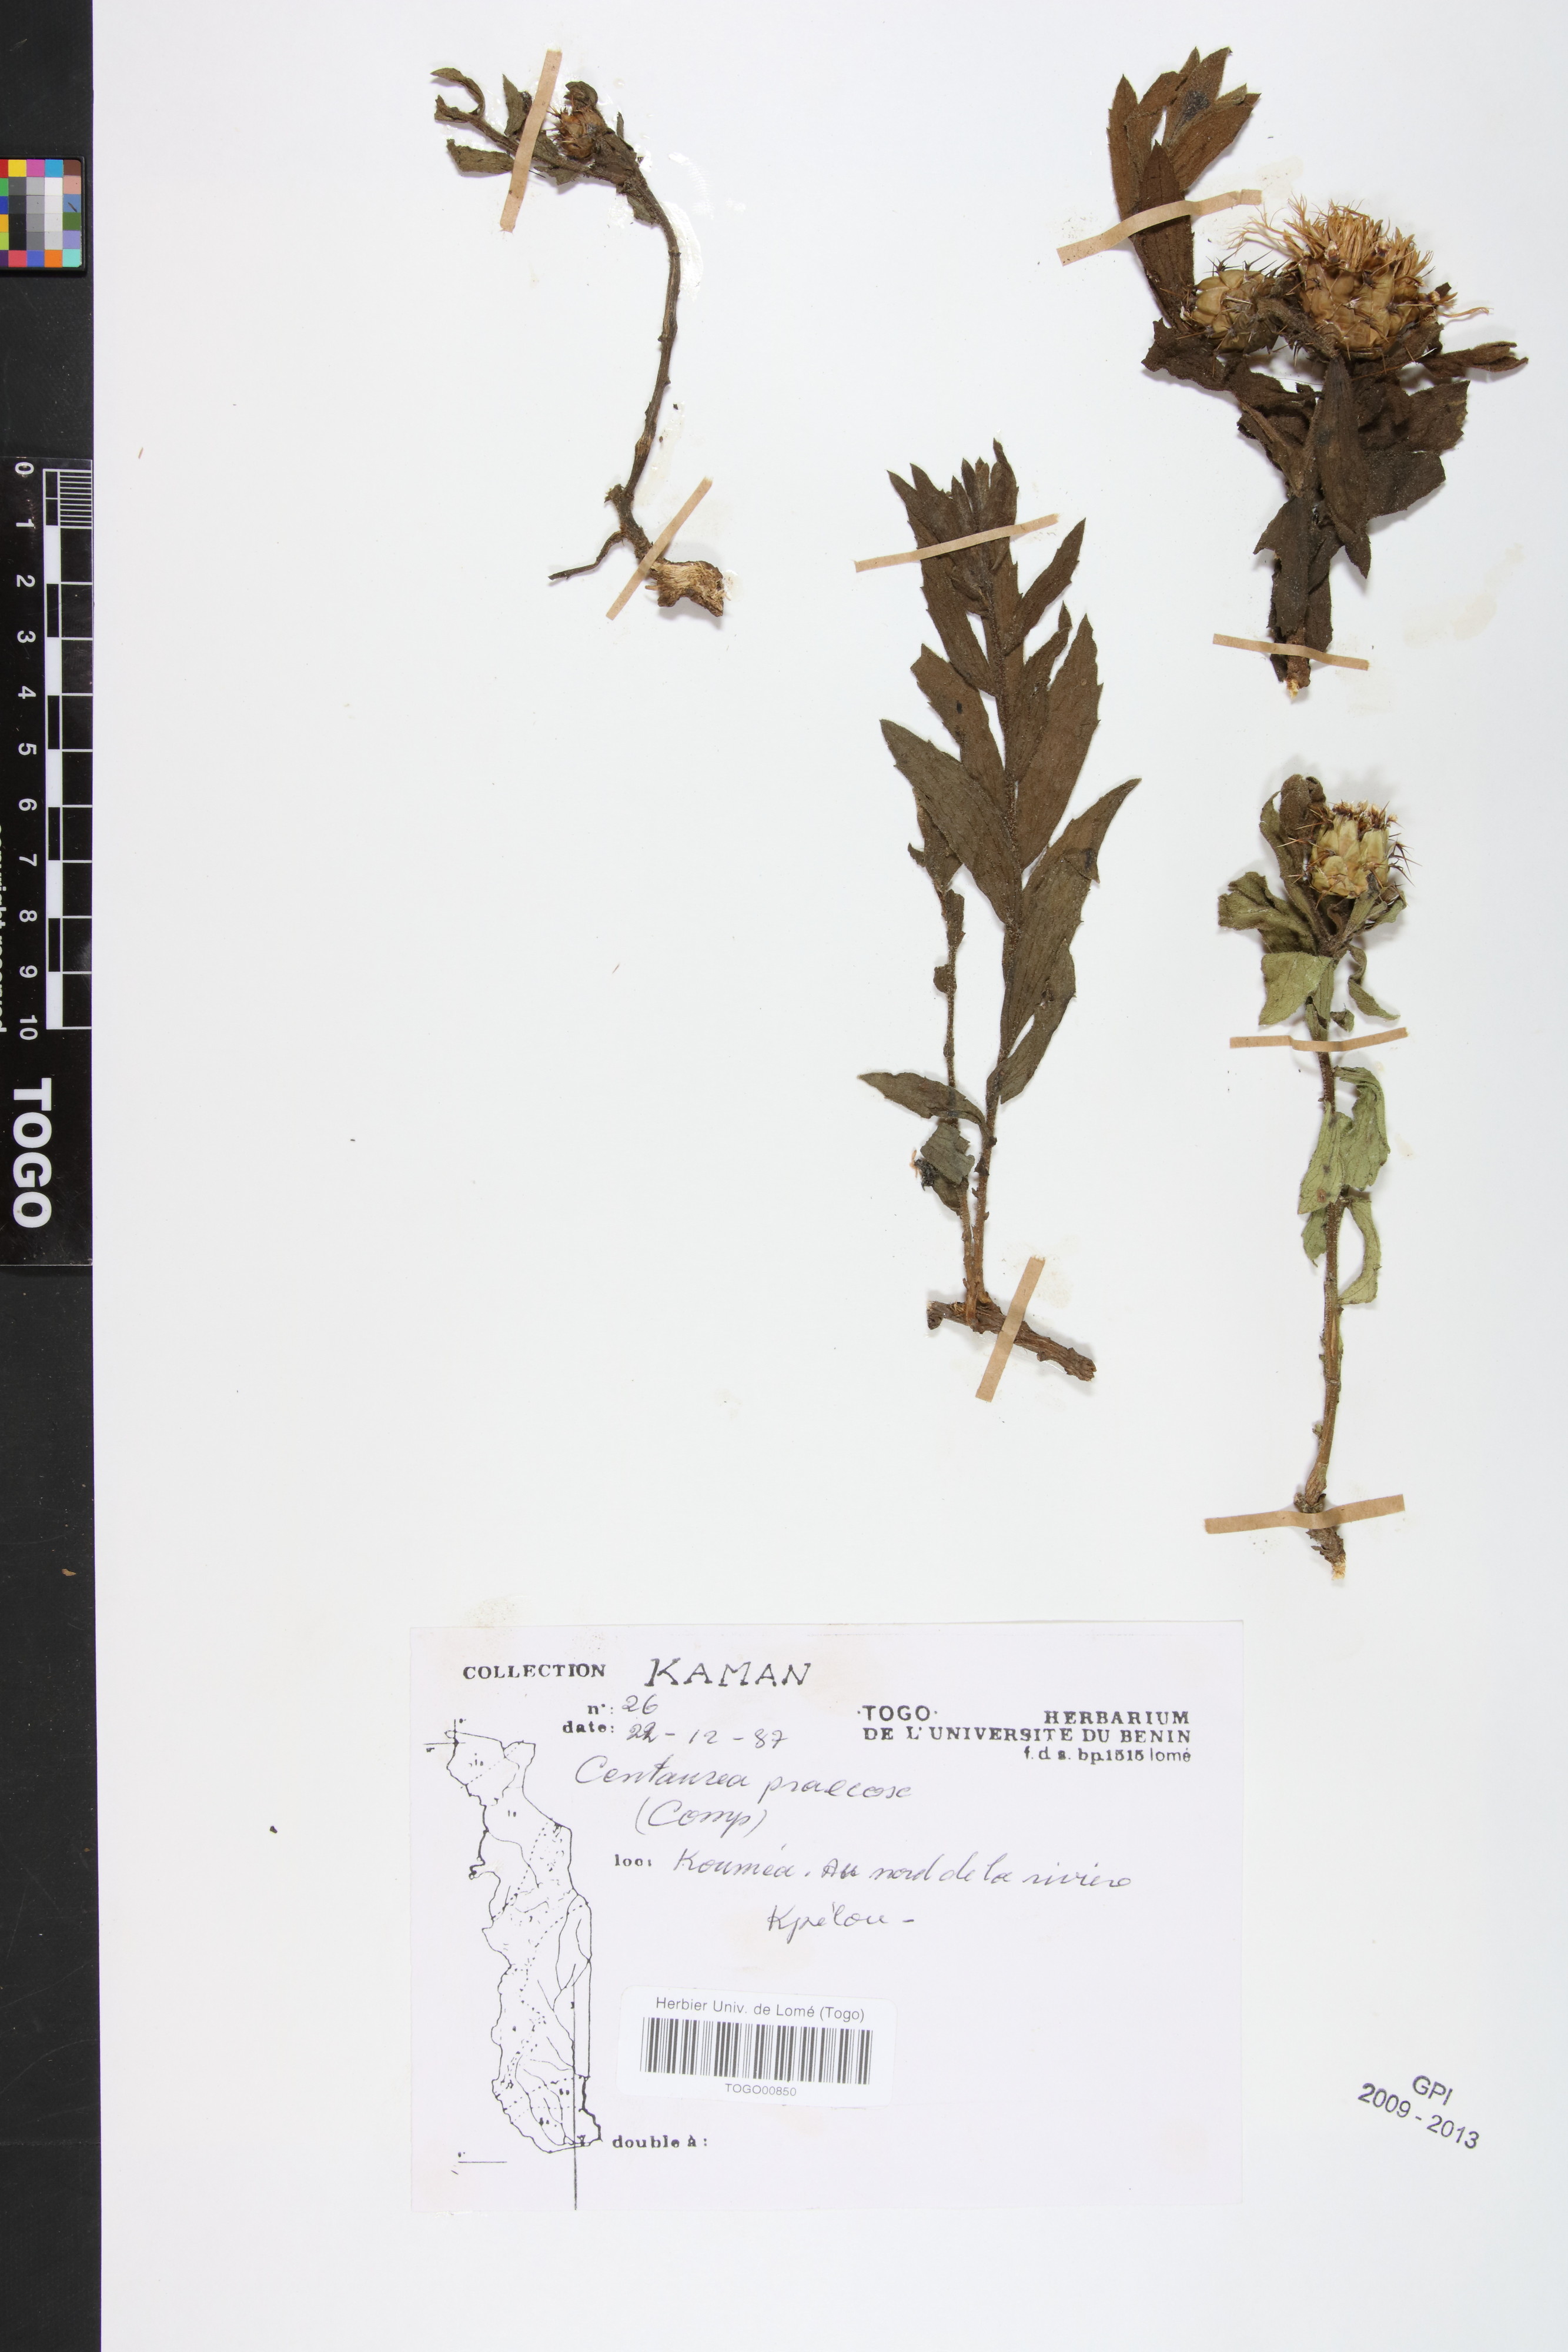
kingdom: Plantae
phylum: Tracheophyta
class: Magnoliopsida
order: Asterales
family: Asteraceae
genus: Centaurea
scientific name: Centaurea praecox
